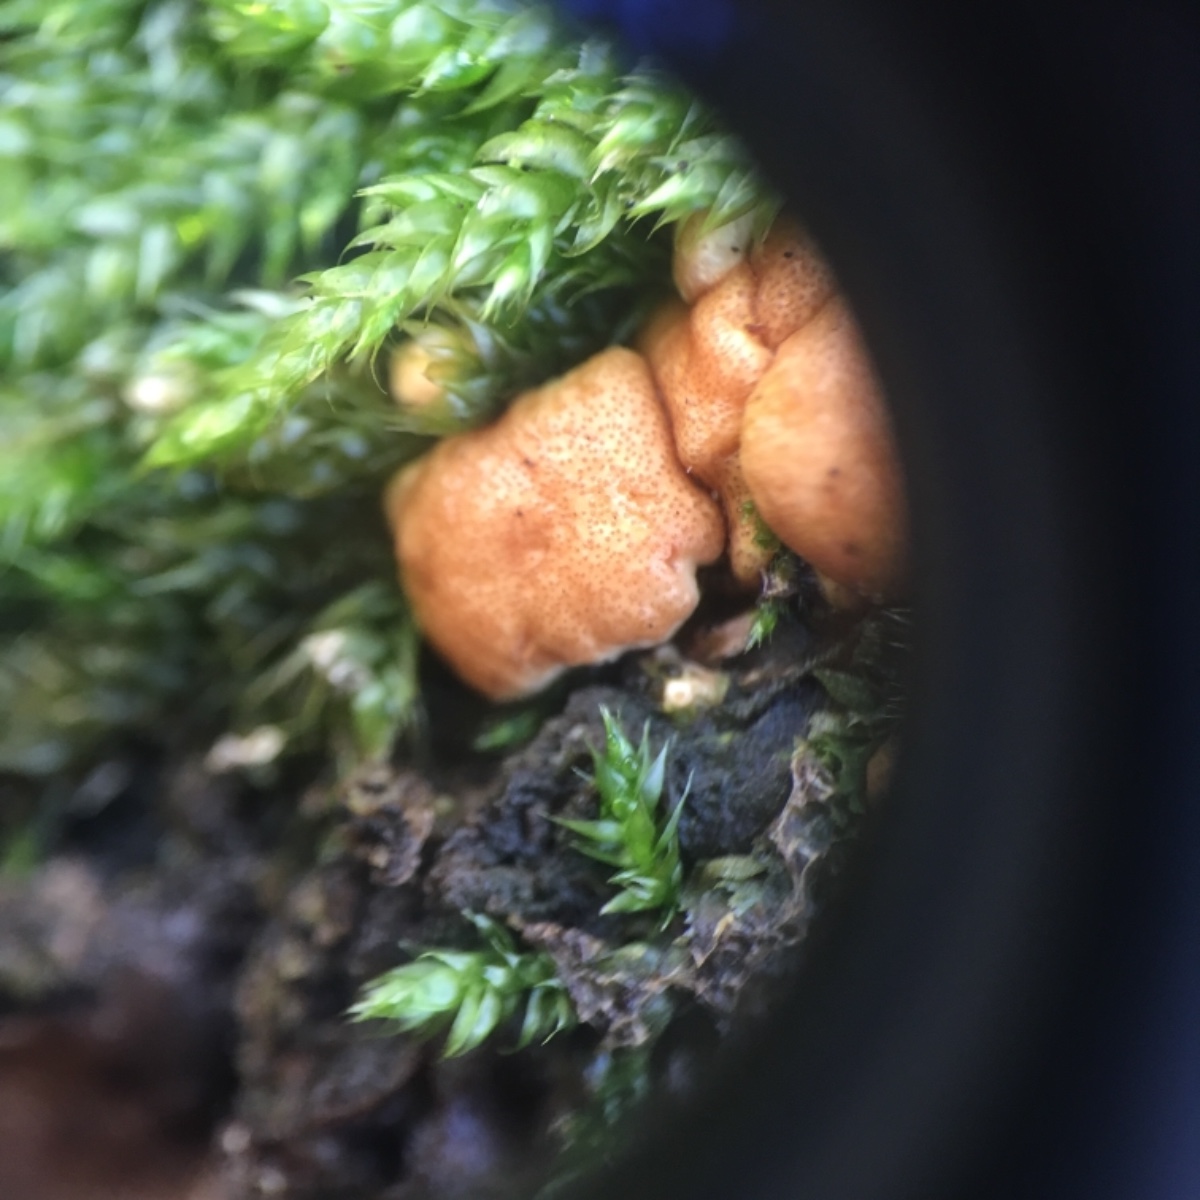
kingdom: Fungi
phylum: Ascomycota
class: Sordariomycetes
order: Hypocreales
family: Hypocreaceae
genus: Trichoderma
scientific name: Trichoderma
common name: kødkerne
